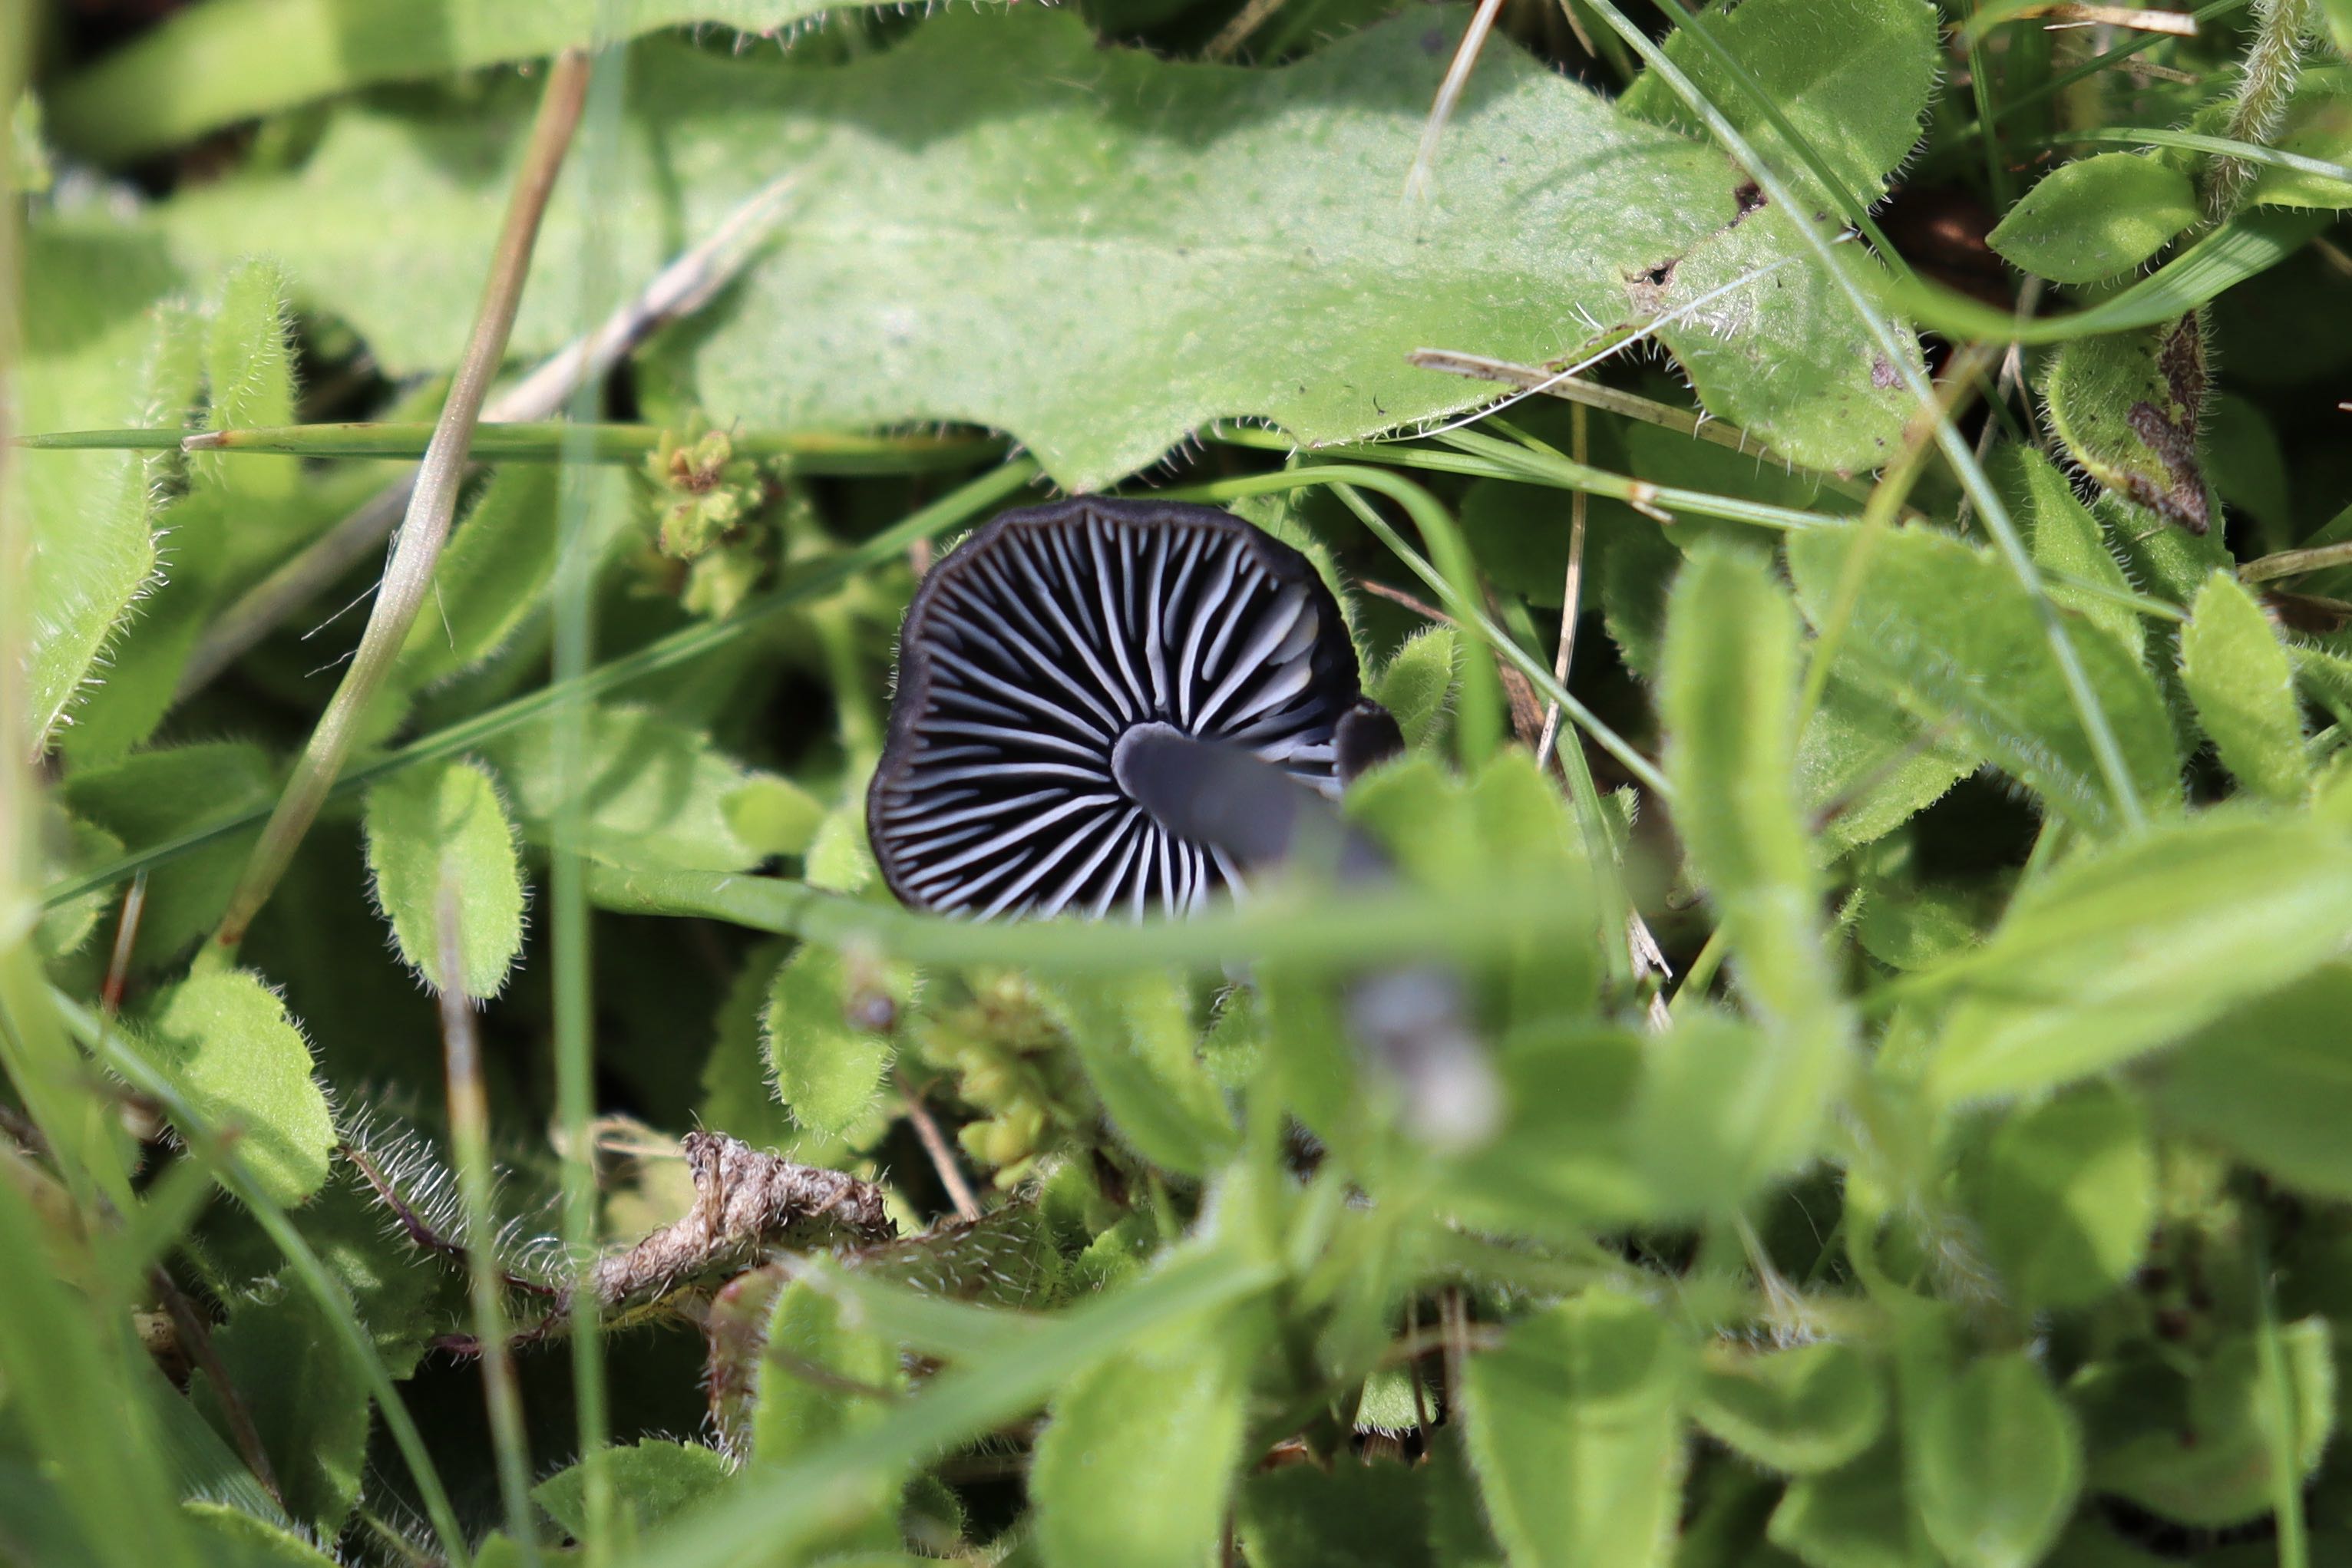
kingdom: Fungi
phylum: Basidiomycota
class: Agaricomycetes
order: Agaricales
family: Entolomataceae
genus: Entoloma
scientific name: Entoloma chalybeum
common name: blåbladet rødblad
